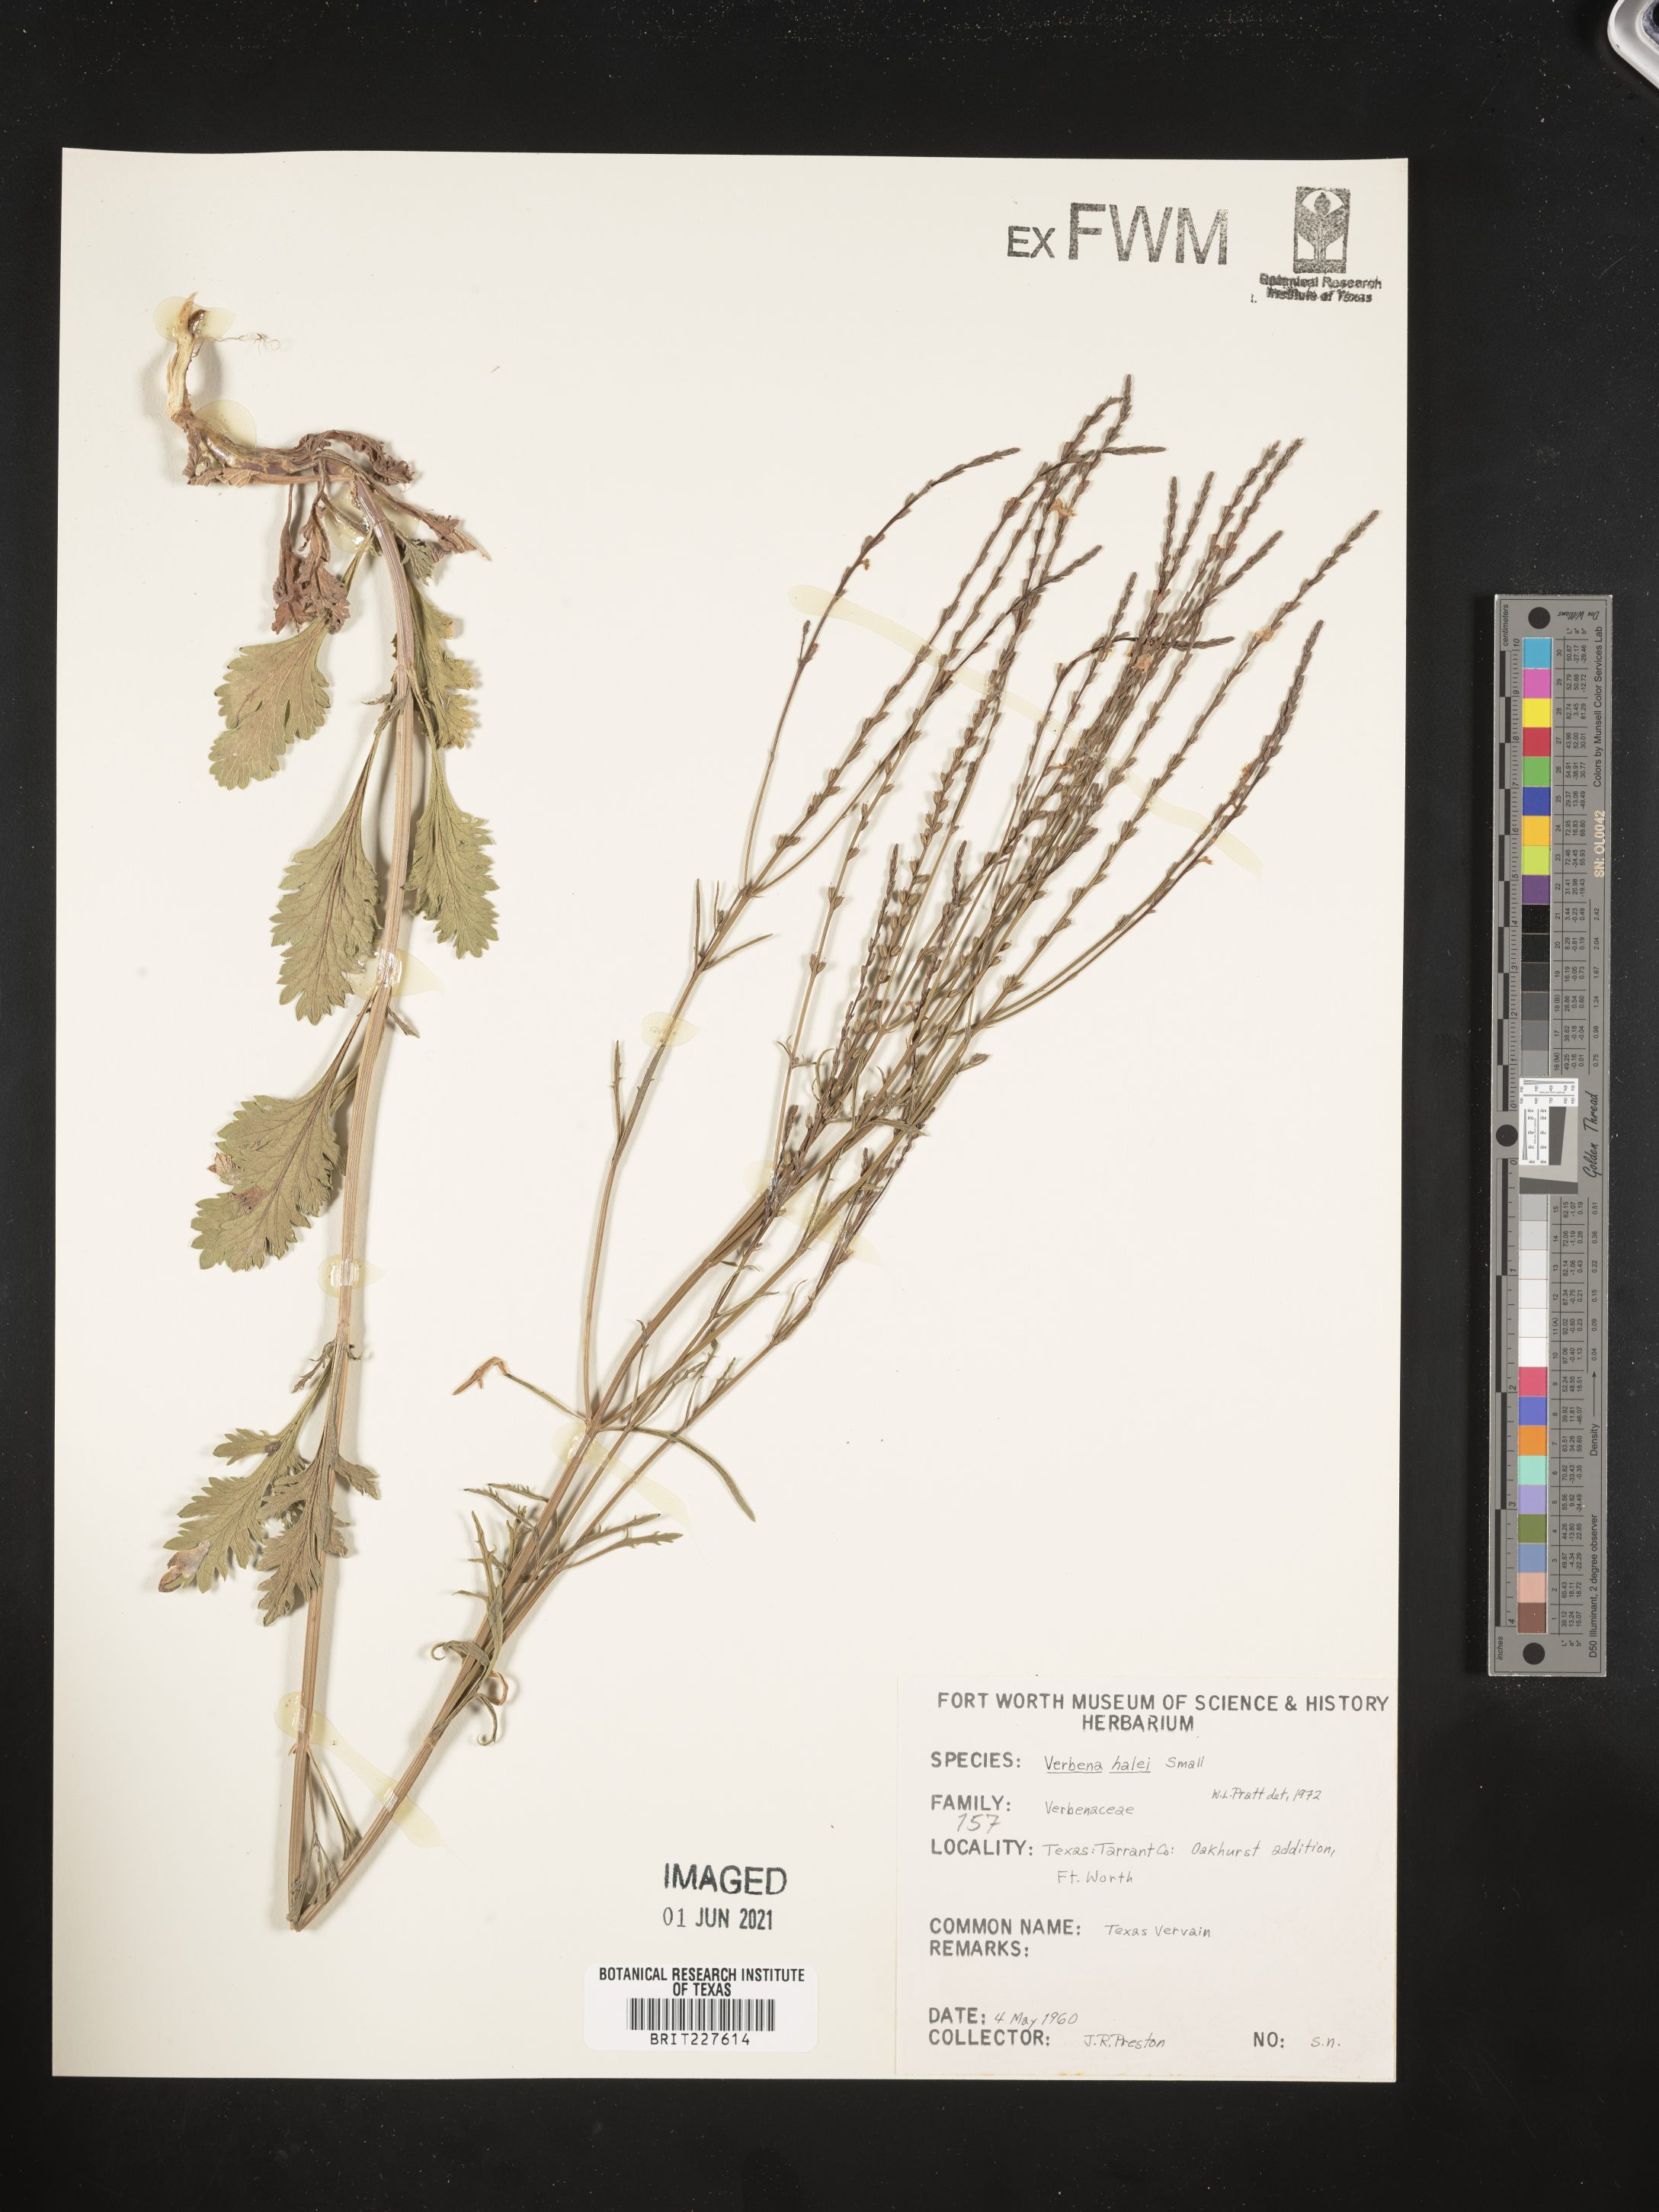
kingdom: Plantae
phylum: Tracheophyta
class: Magnoliopsida
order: Lamiales
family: Verbenaceae
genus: Verbena
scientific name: Verbena halei
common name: Texas vervain
